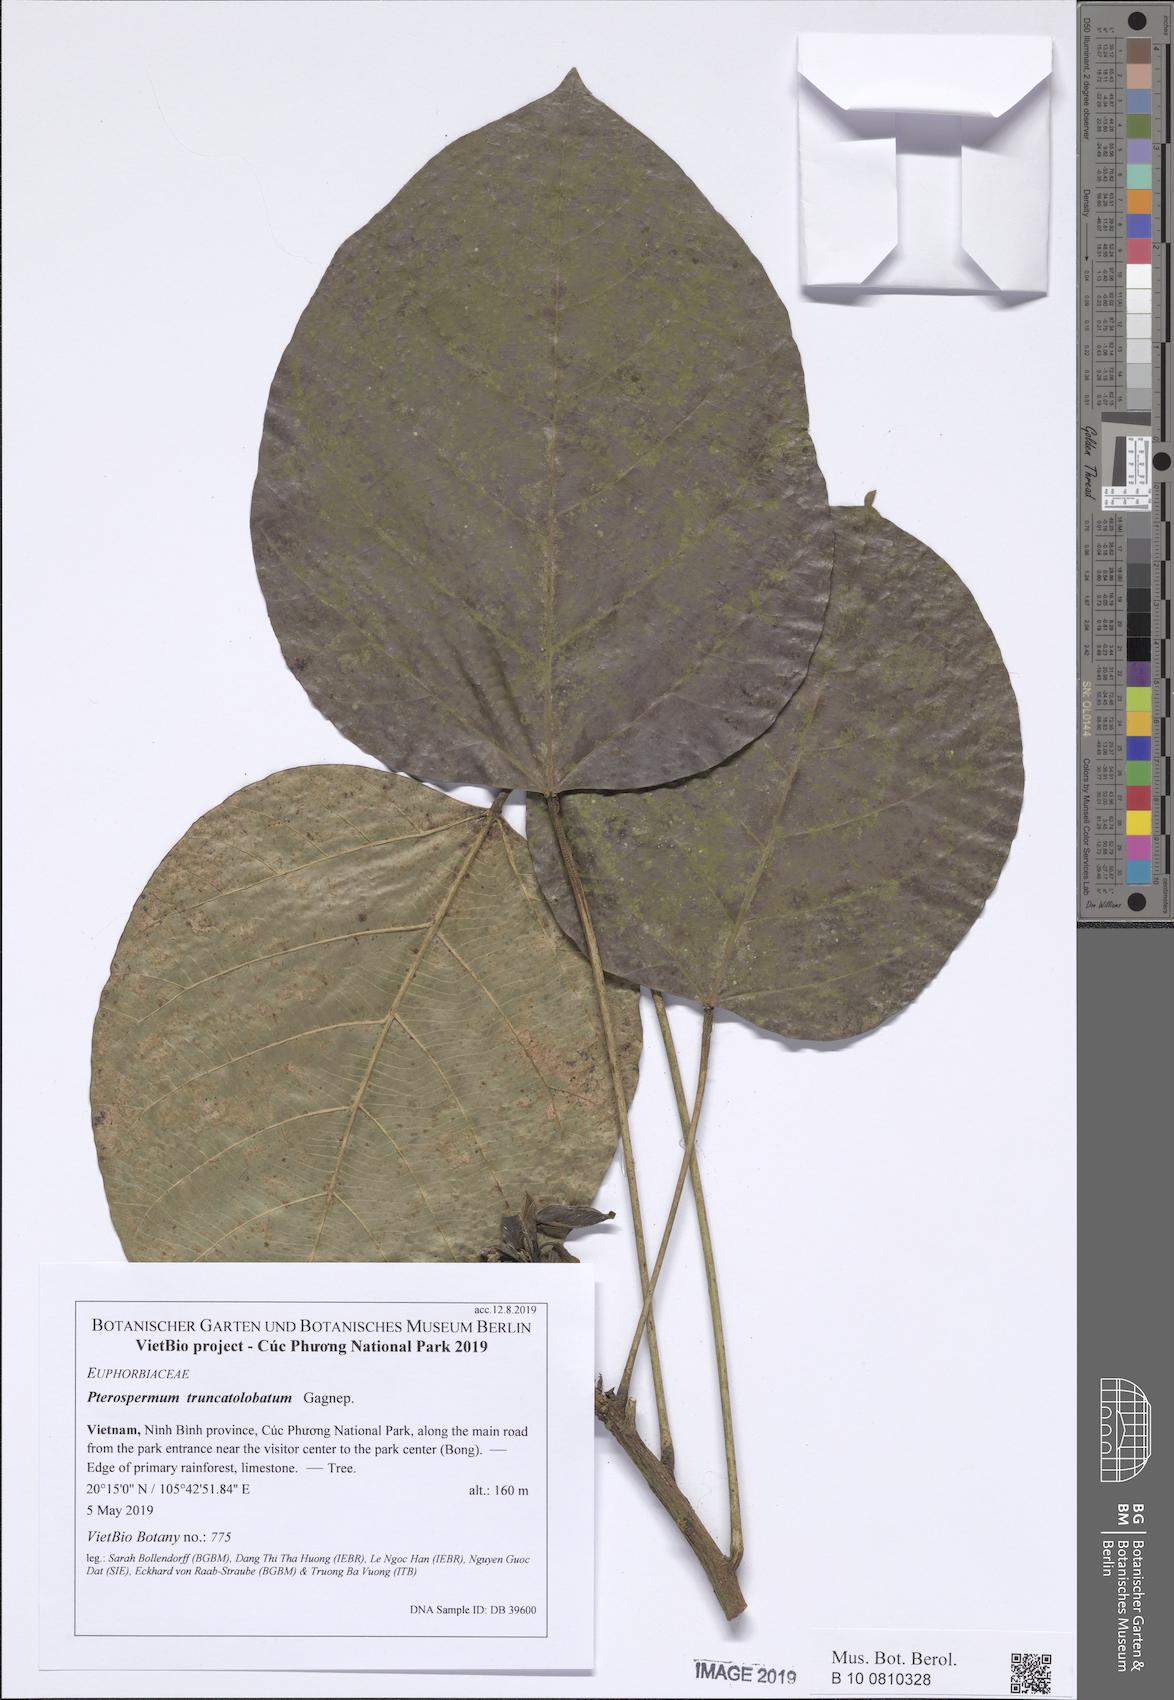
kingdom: Plantae
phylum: Tracheophyta
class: Magnoliopsida
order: Malvales
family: Malvaceae
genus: Pterospermum
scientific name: Pterospermum truncatolobatum
